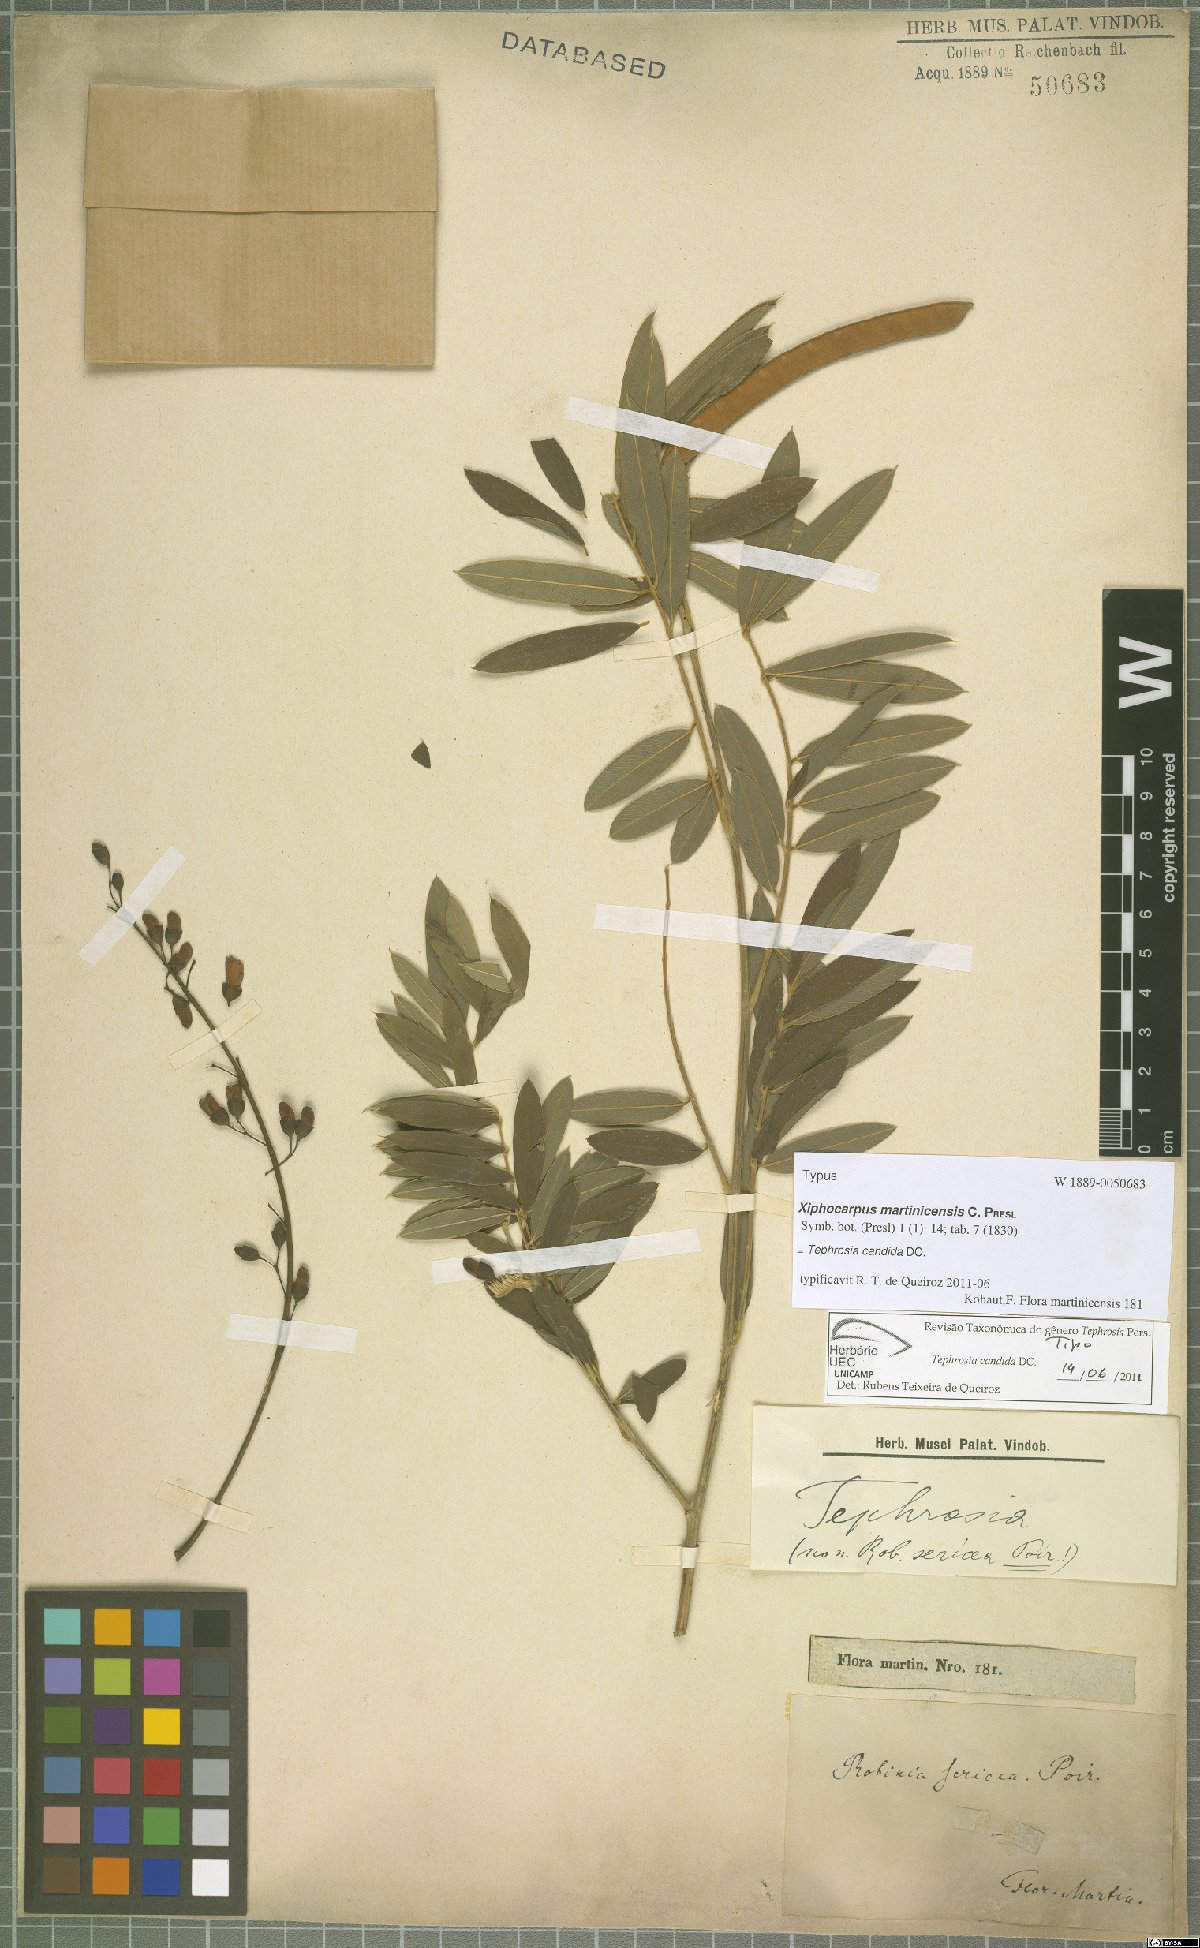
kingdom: Plantae
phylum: Tracheophyta
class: Magnoliopsida
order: Fabales
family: Fabaceae
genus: Tephrosia
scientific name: Tephrosia candida
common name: White tephrosia
